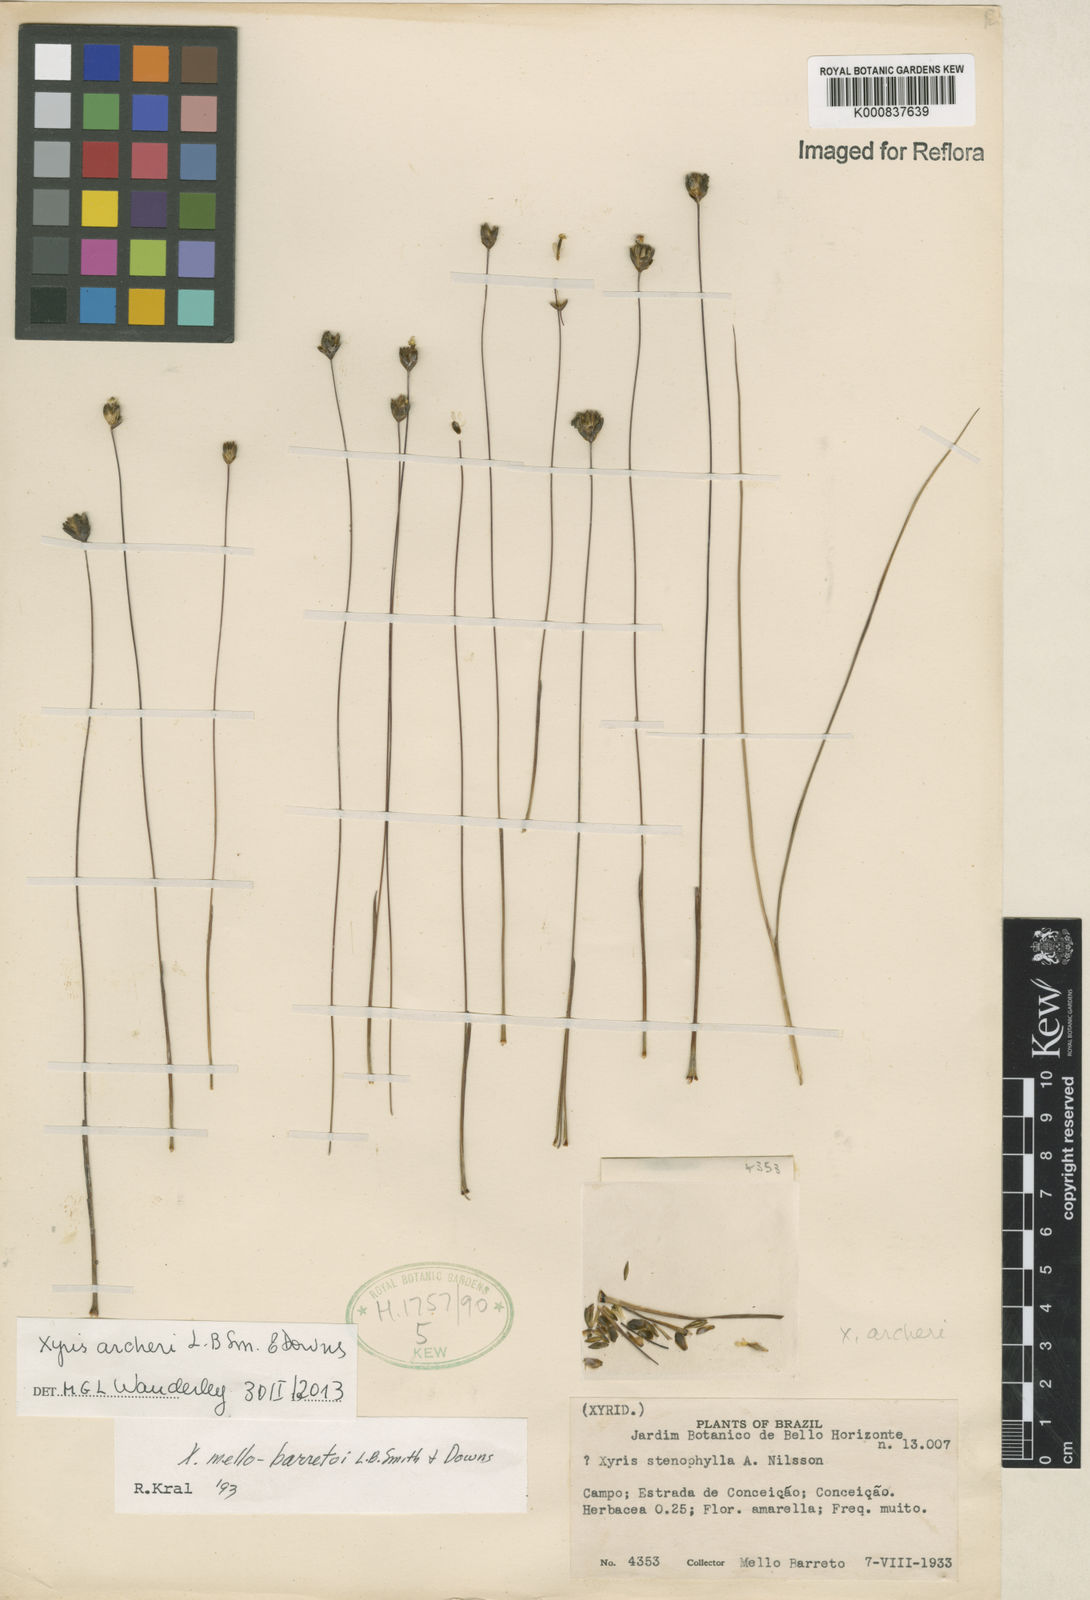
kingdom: Plantae
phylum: Tracheophyta
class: Liliopsida
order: Poales
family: Xyridaceae
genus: Xyris
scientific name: Xyris archeri
